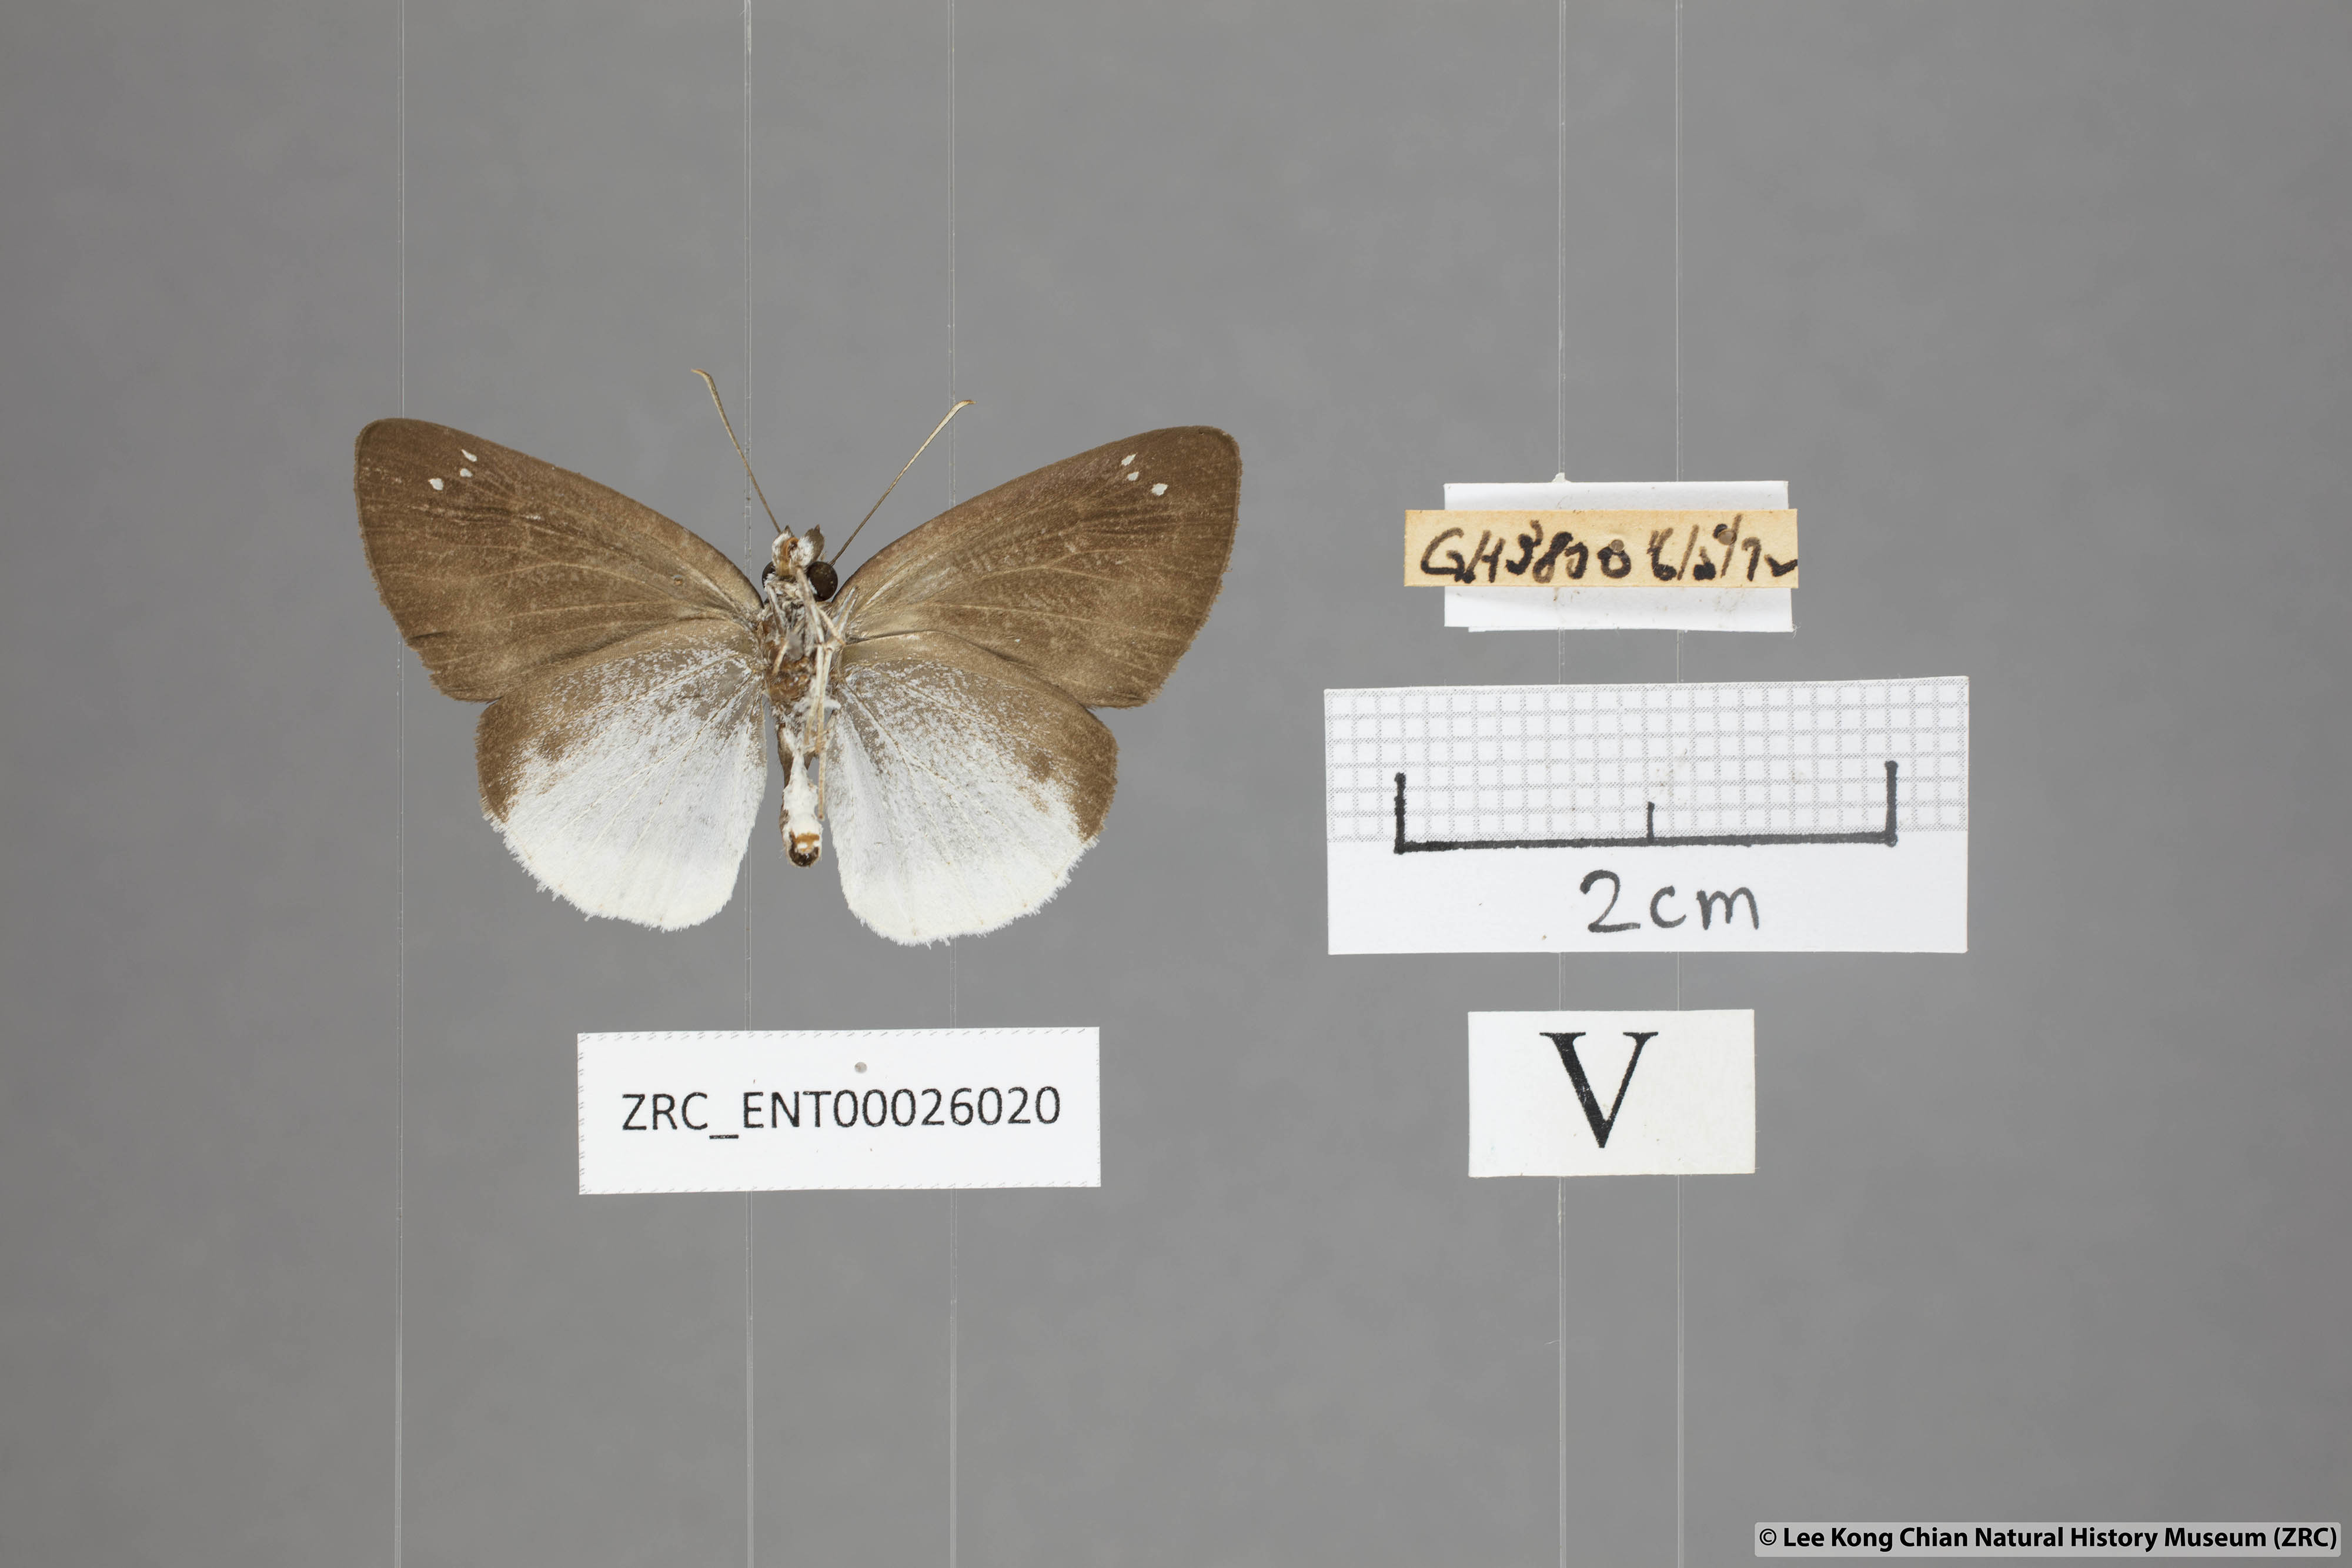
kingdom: Animalia
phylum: Arthropoda
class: Insecta
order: Lepidoptera
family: Hesperiidae
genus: Tagiades
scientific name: Tagiades lavata
